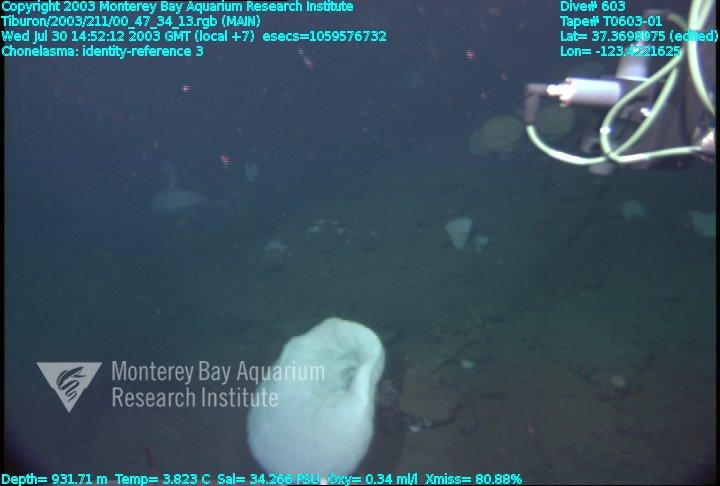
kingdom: Animalia
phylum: Porifera
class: Hexactinellida
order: Sceptrulophora
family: Euretidae
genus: Chonelasma
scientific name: Chonelasma
